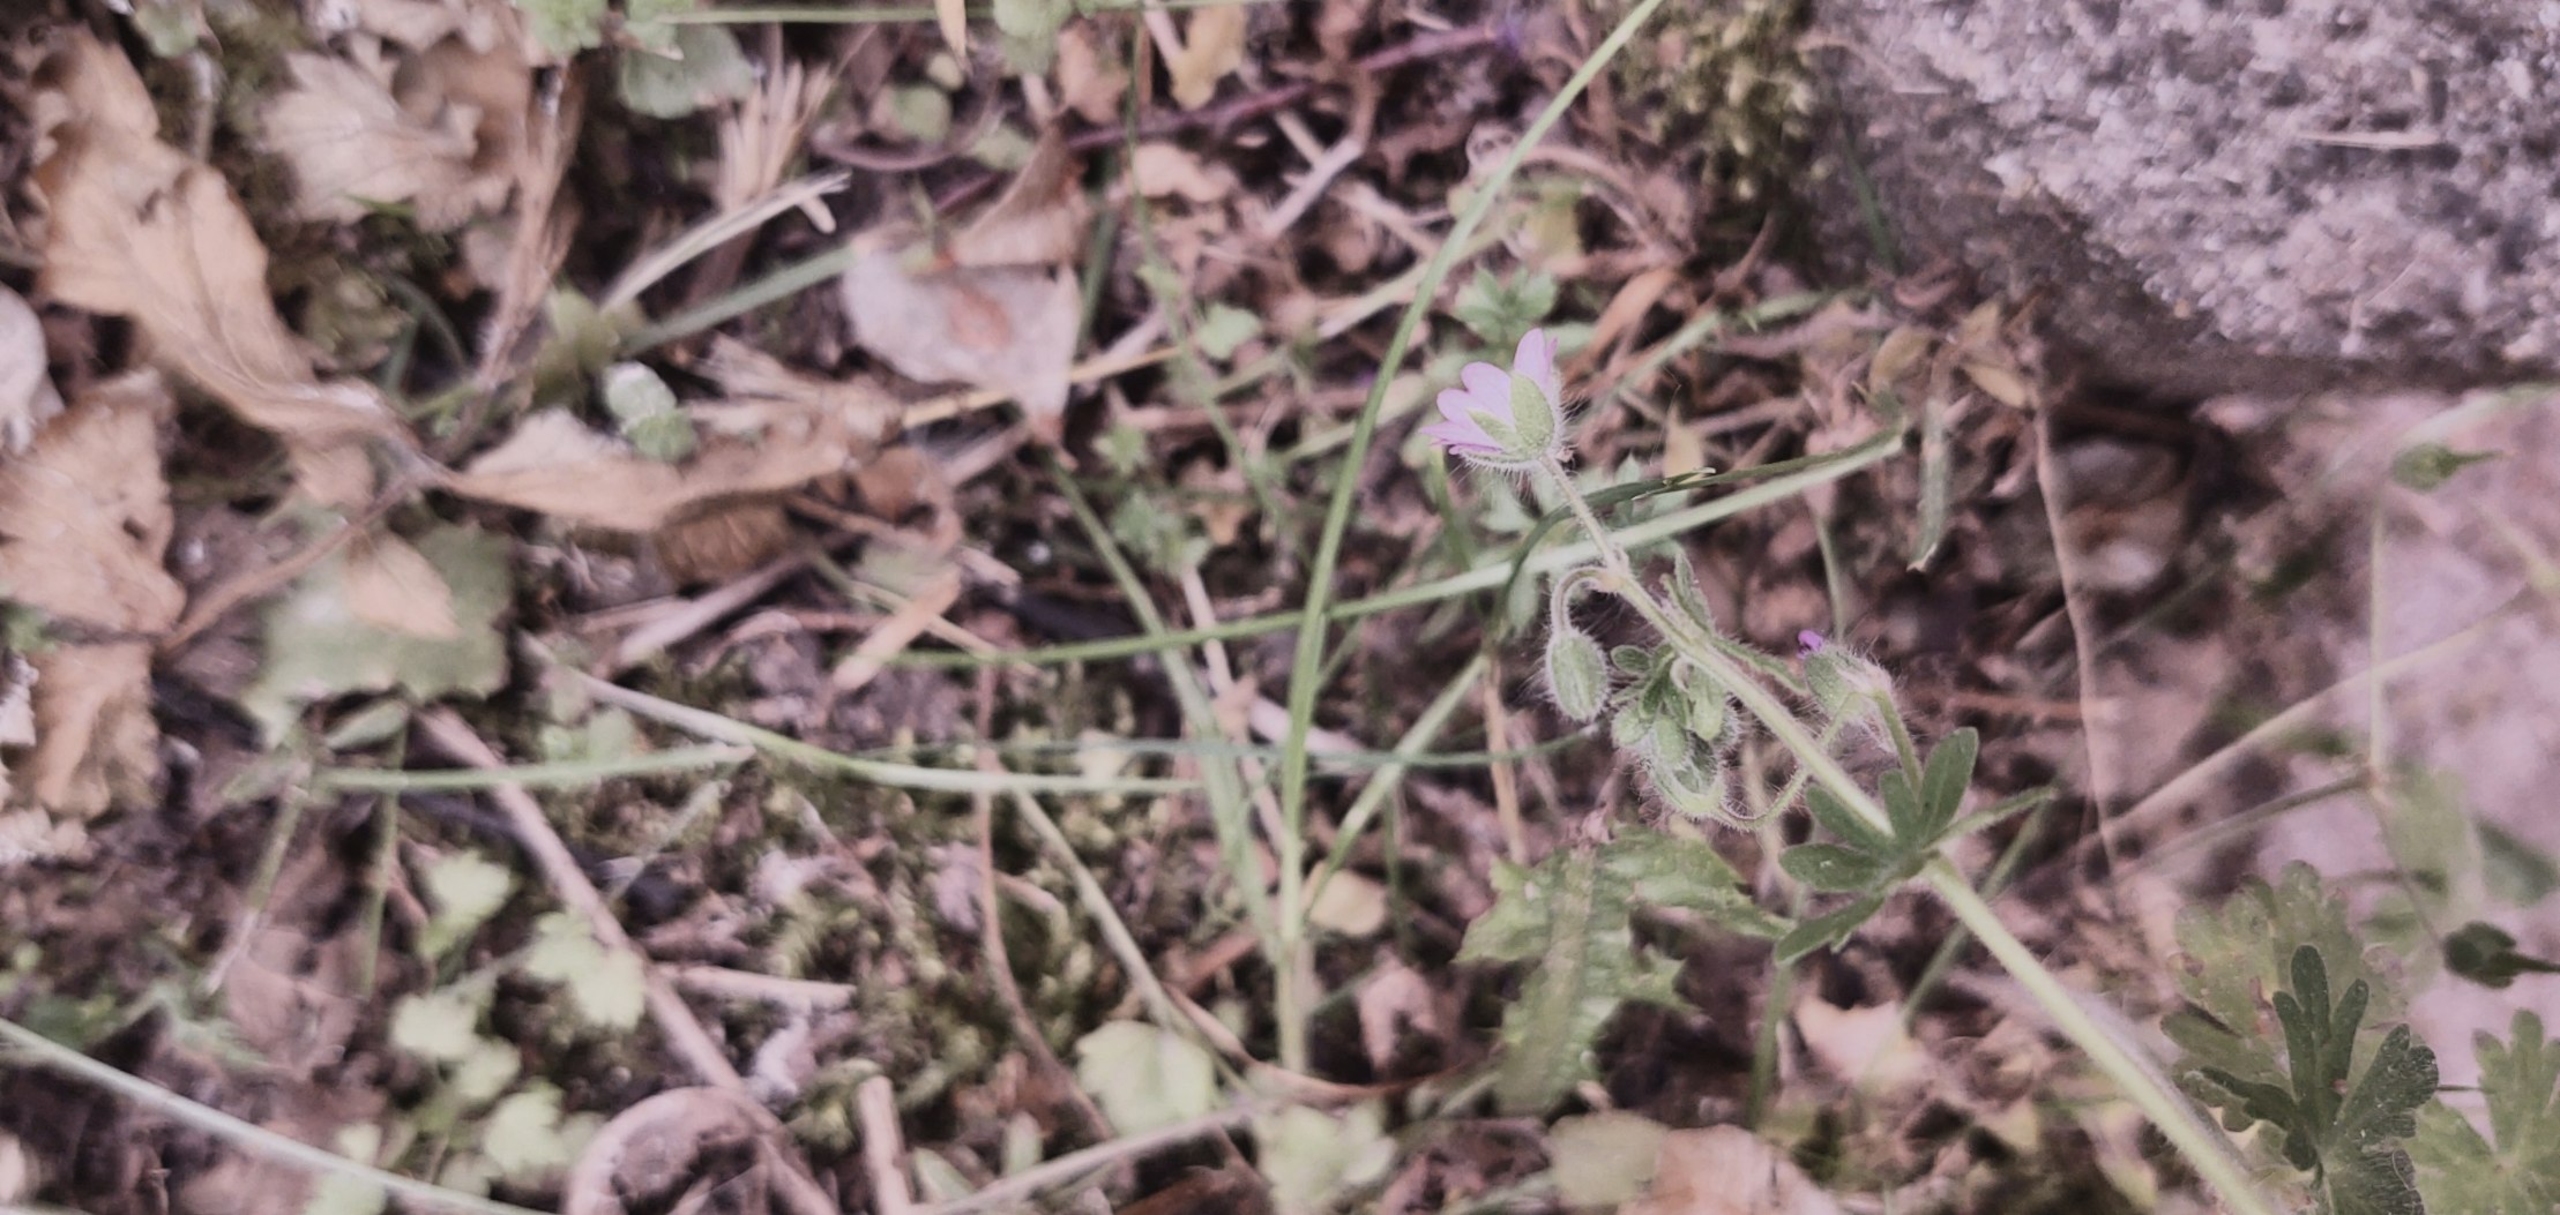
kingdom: Plantae
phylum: Tracheophyta
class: Magnoliopsida
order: Geraniales
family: Geraniaceae
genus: Geranium
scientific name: Geranium molle
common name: Blød storkenæb
